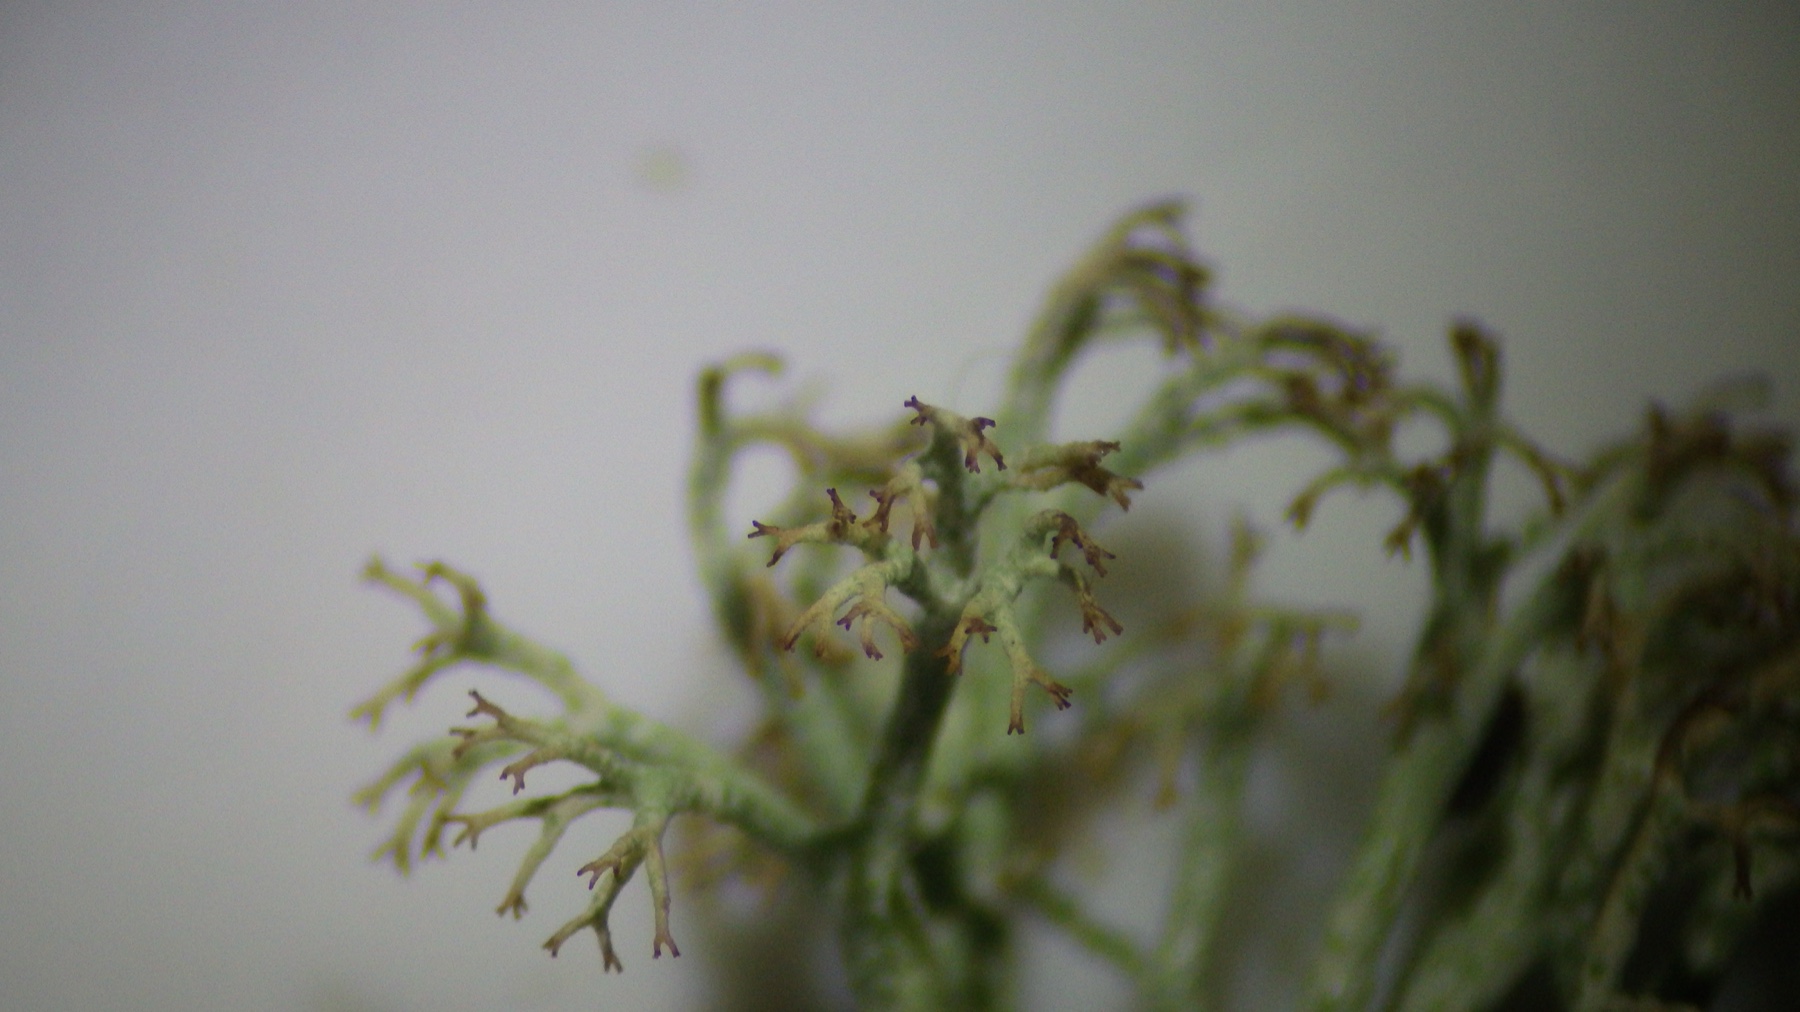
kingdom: Fungi
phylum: Ascomycota
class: Lecanoromycetes
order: Lecanorales
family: Cladoniaceae
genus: Cladonia
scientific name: Cladonia ciliata
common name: spinkel rensdyrlav
